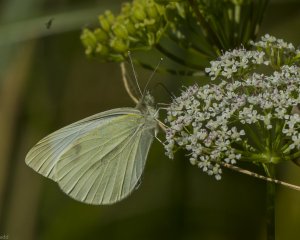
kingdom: Animalia
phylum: Arthropoda
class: Insecta
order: Lepidoptera
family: Pieridae
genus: Pieris
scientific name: Pieris rapae
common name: Cabbage White
